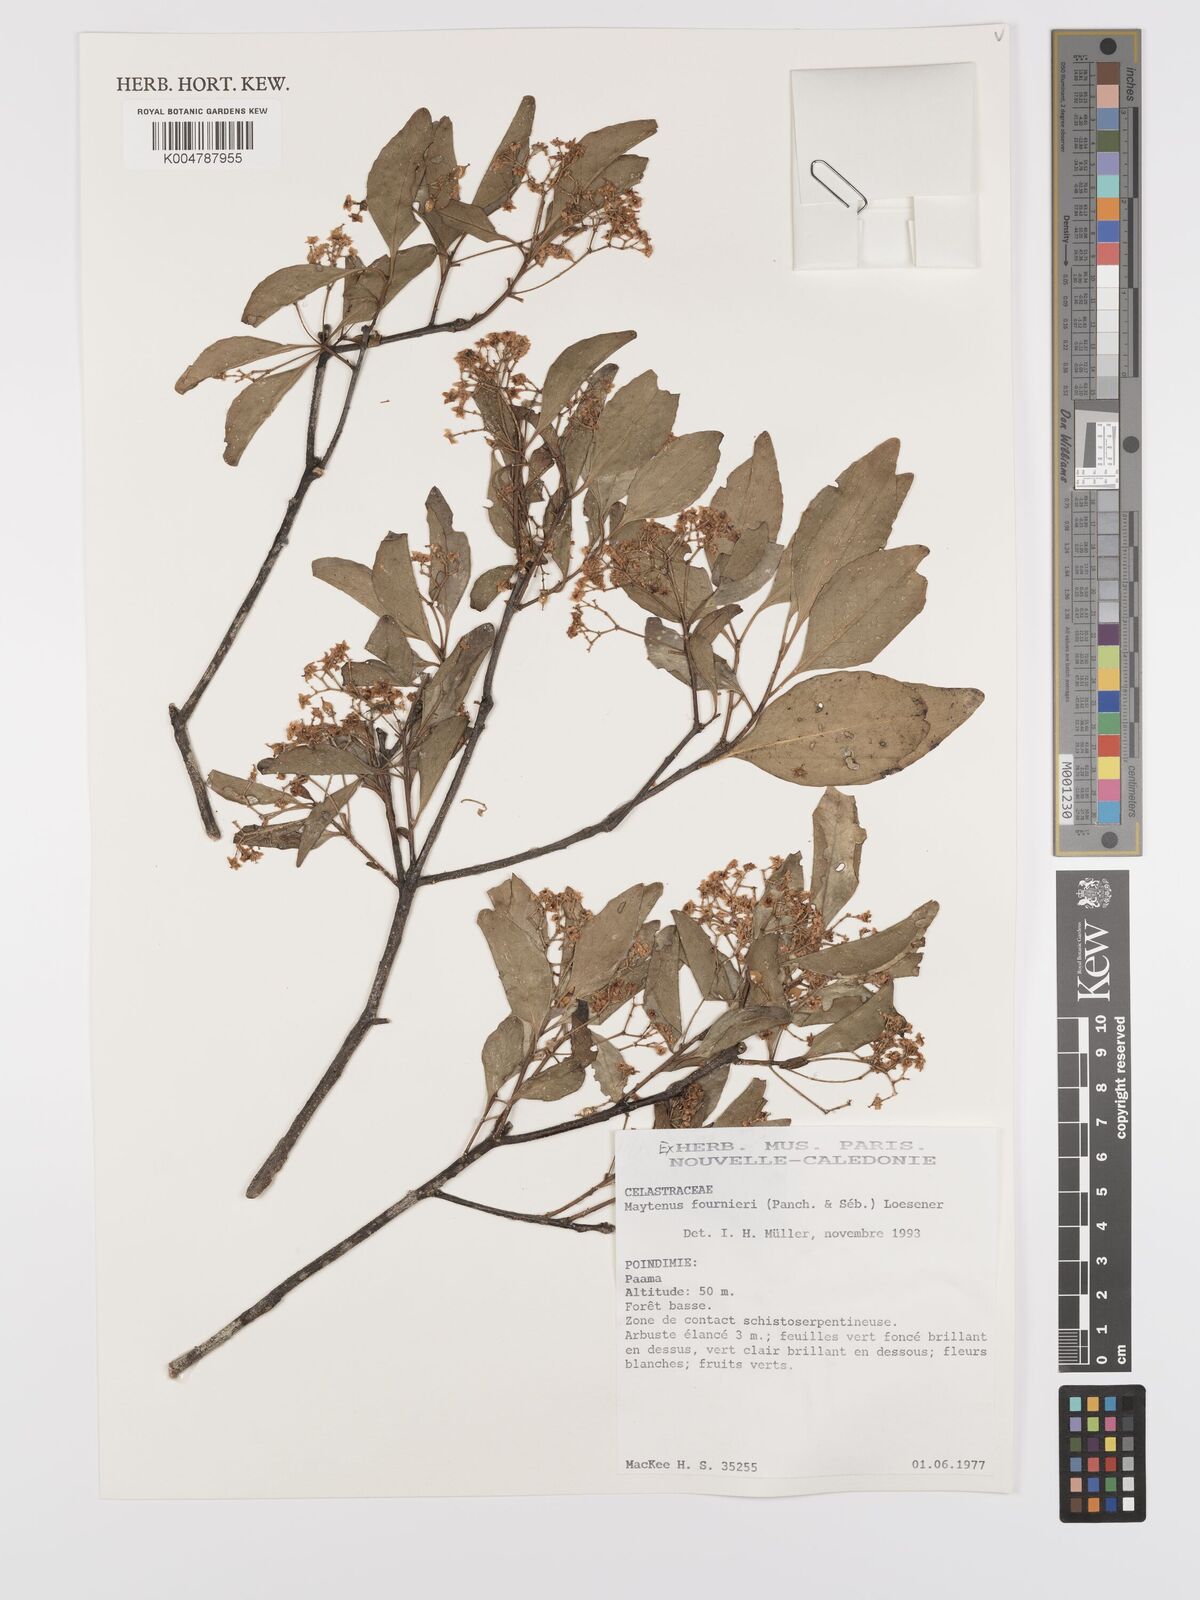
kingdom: Plantae
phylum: Tracheophyta
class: Magnoliopsida
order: Celastrales
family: Celastraceae
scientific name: Celastraceae
